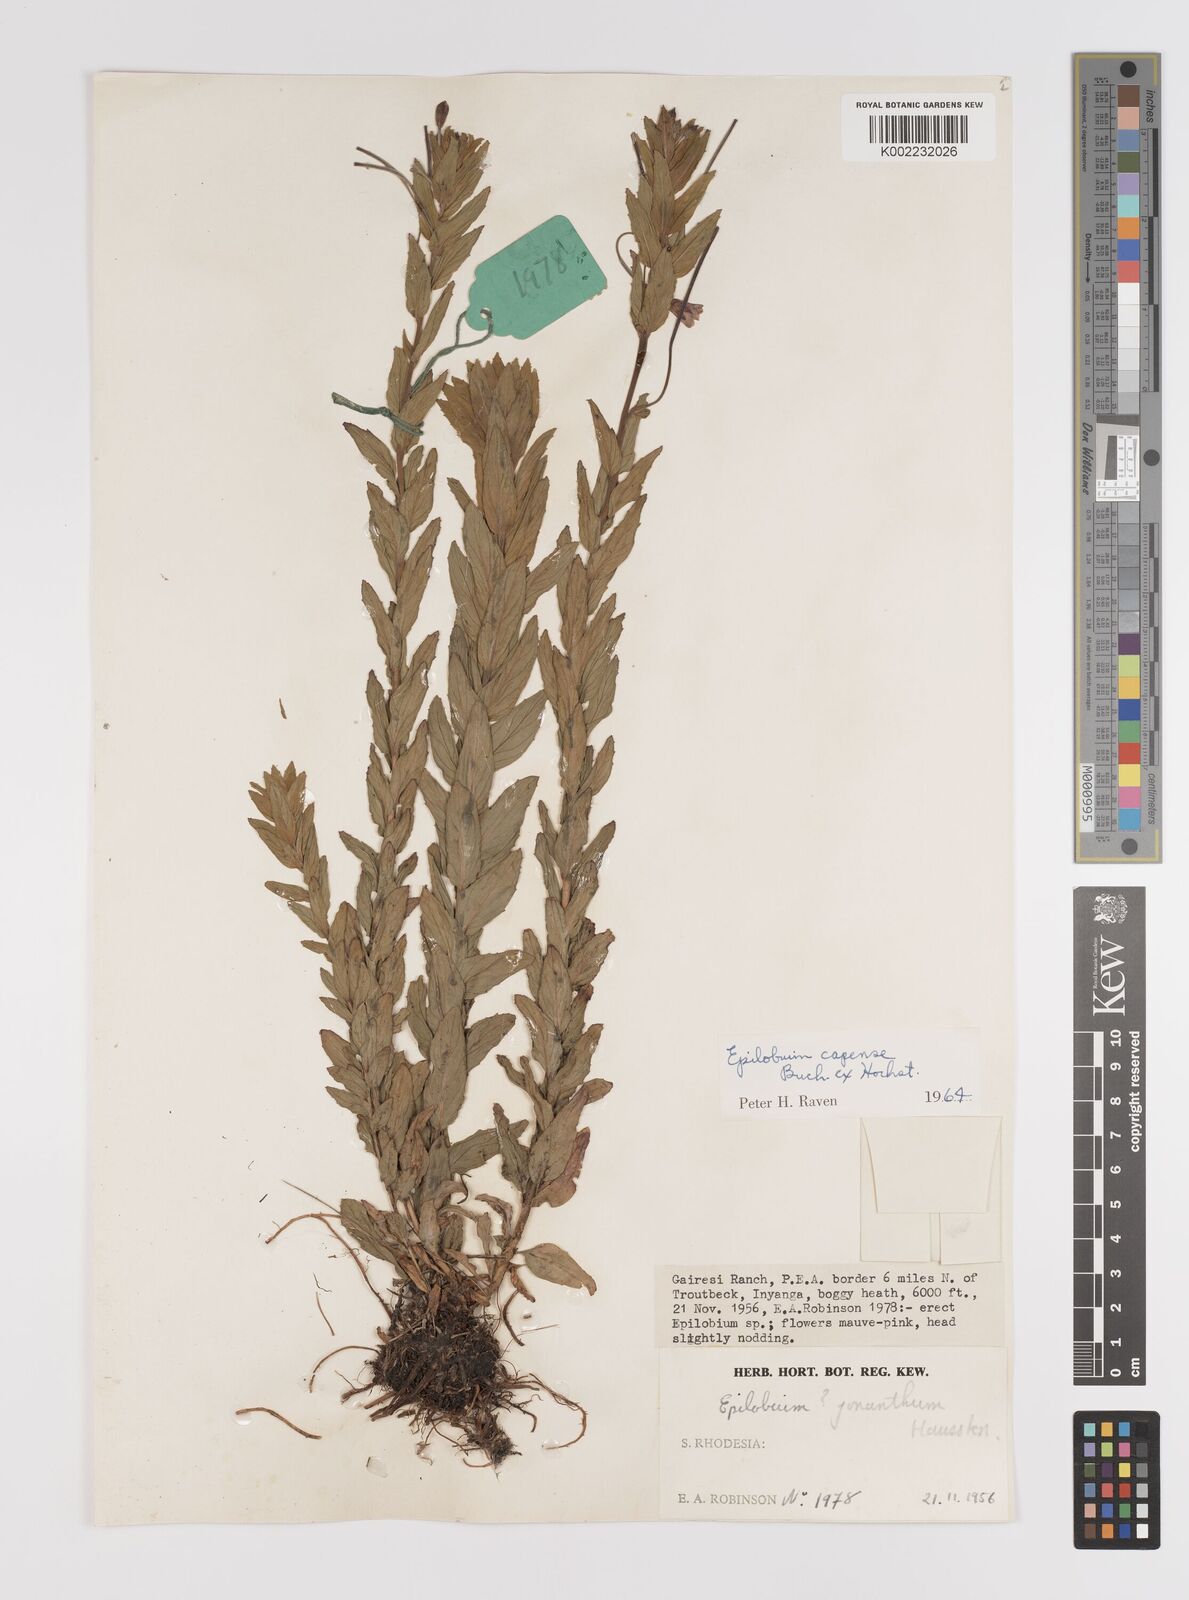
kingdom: Plantae
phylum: Tracheophyta
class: Magnoliopsida
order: Myrtales
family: Onagraceae
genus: Epilobium
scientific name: Epilobium capense
